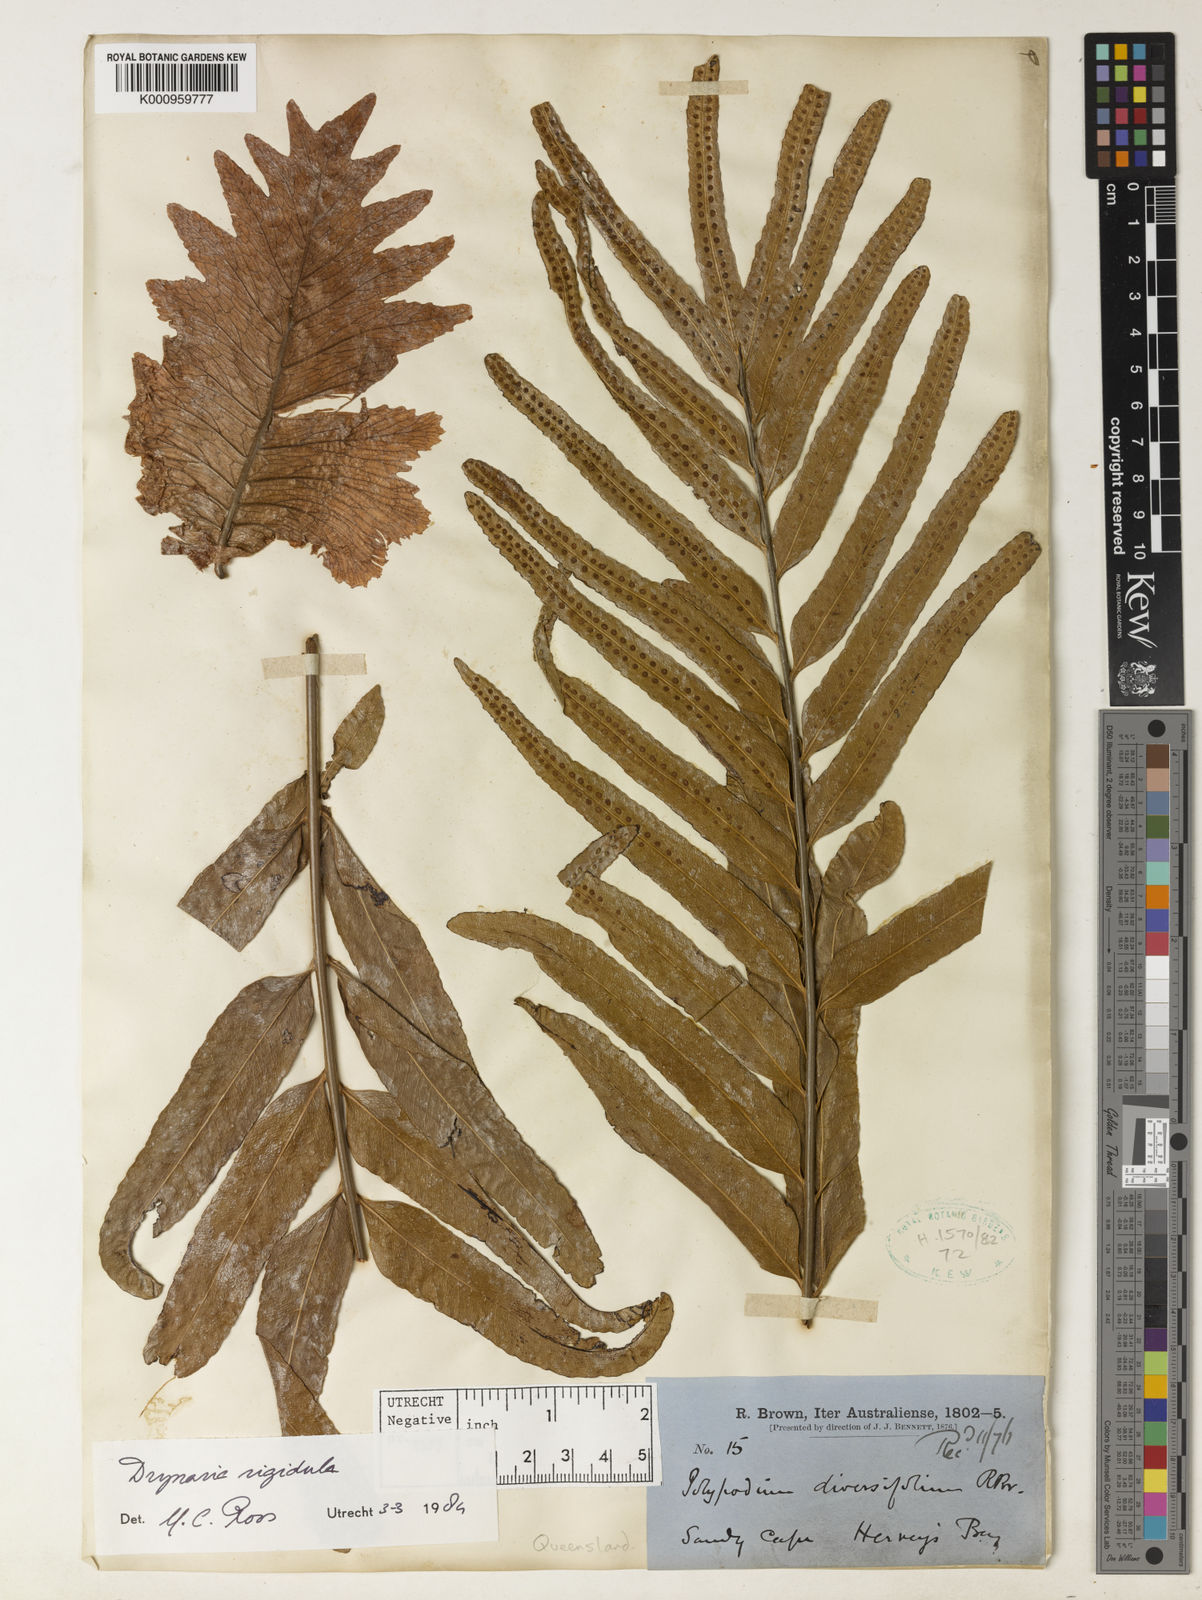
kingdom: Plantae
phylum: Tracheophyta
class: Polypodiopsida
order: Polypodiales
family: Polypodiaceae
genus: Drynaria
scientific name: Drynaria rigidula
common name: Basket fern
